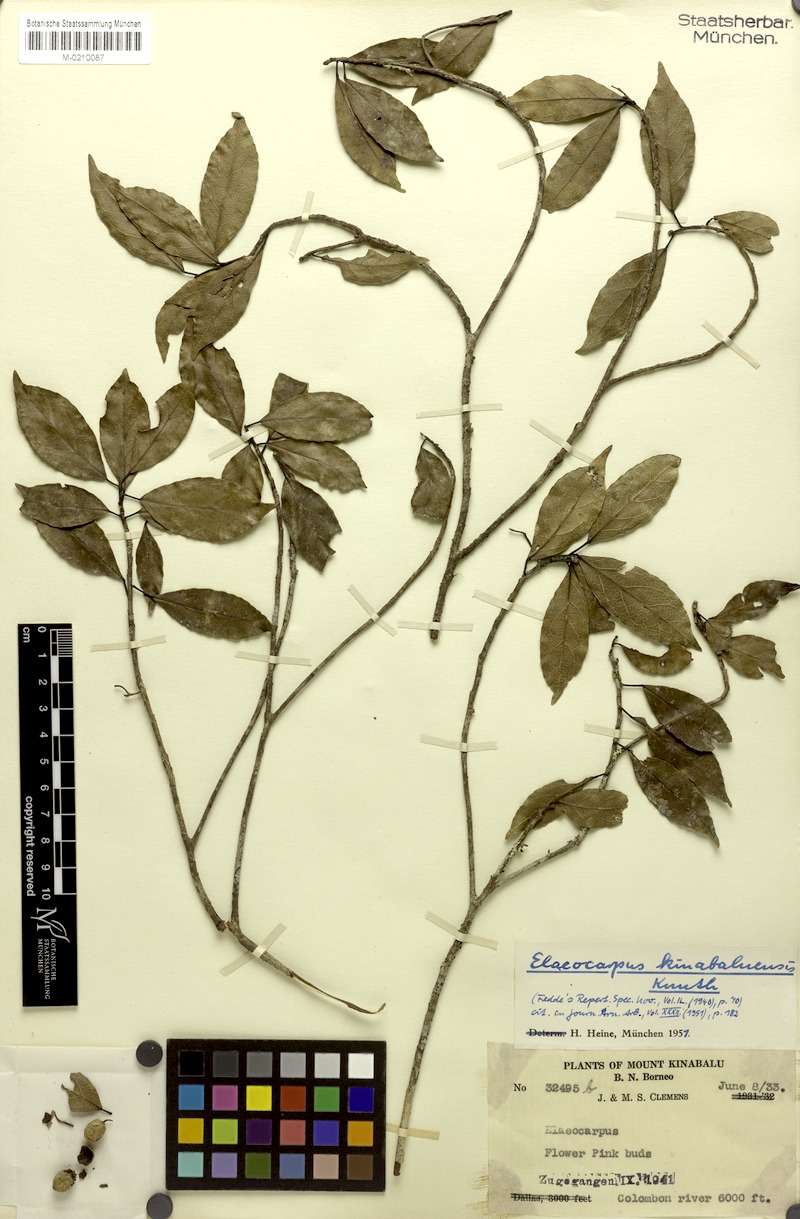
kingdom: Plantae
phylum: Tracheophyta
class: Magnoliopsida
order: Oxalidales
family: Elaeocarpaceae
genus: Elaeocarpus
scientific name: Elaeocarpus kinabaluensis
